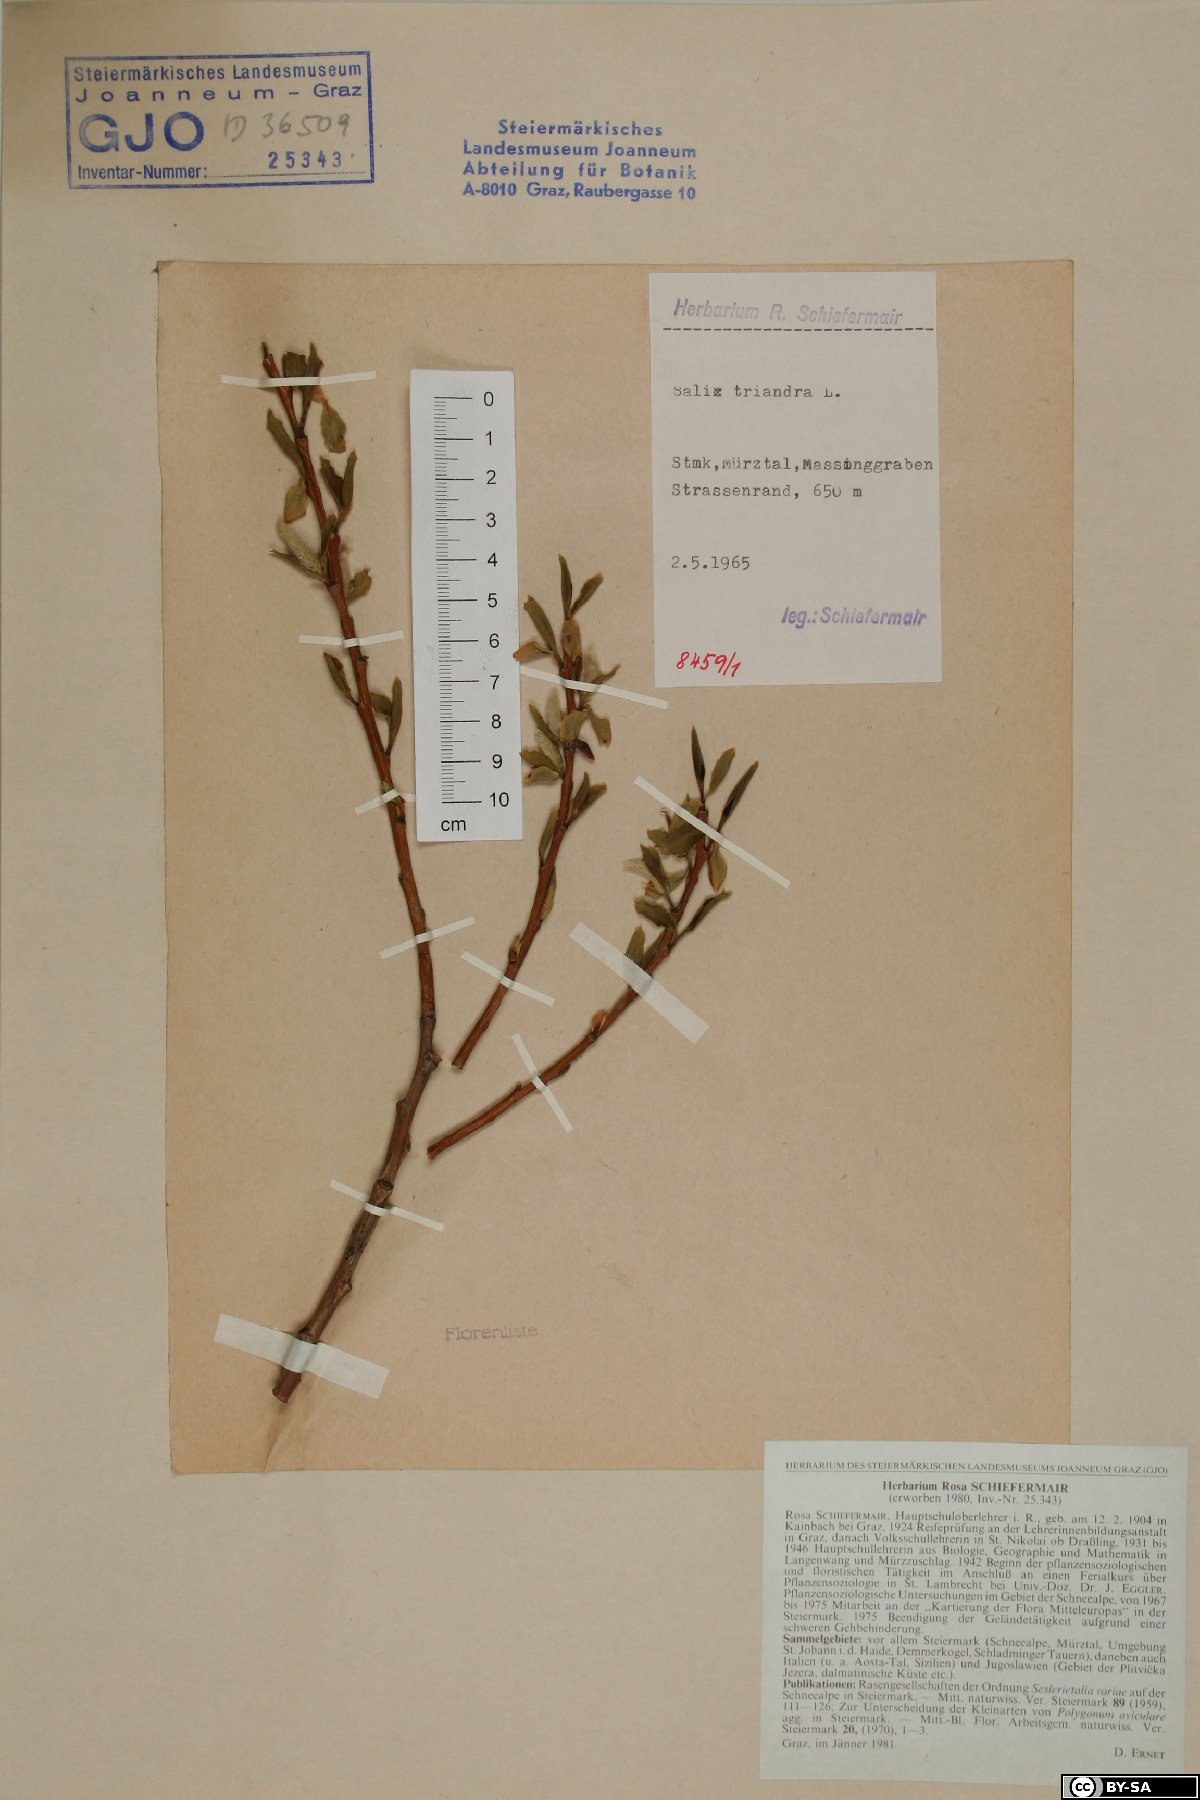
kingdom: Plantae
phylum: Tracheophyta
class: Magnoliopsida
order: Malpighiales
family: Salicaceae
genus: Salix
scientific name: Salix triandra
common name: Almond willow
